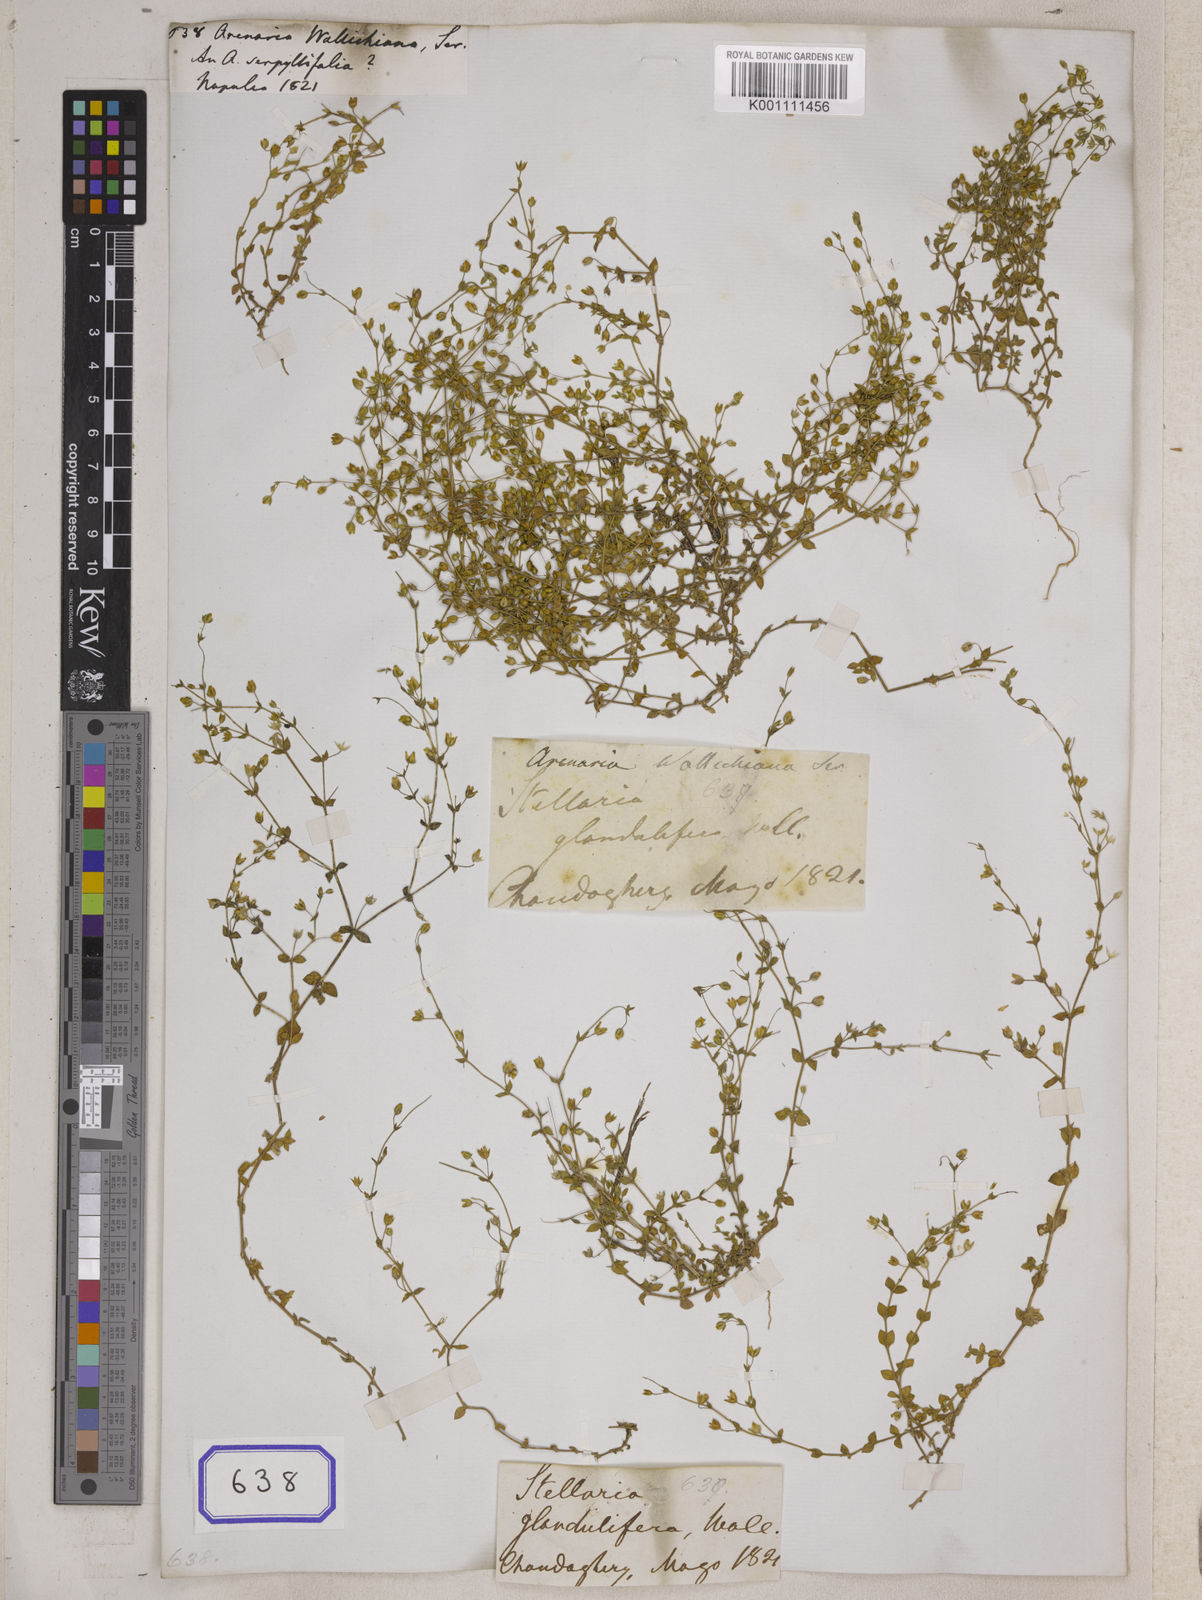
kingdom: Plantae
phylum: Tracheophyta
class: Magnoliopsida
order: Caryophyllales
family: Caryophyllaceae
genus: Arenaria
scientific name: Arenaria serpyllifolia
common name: Thyme-leaved sandwort
